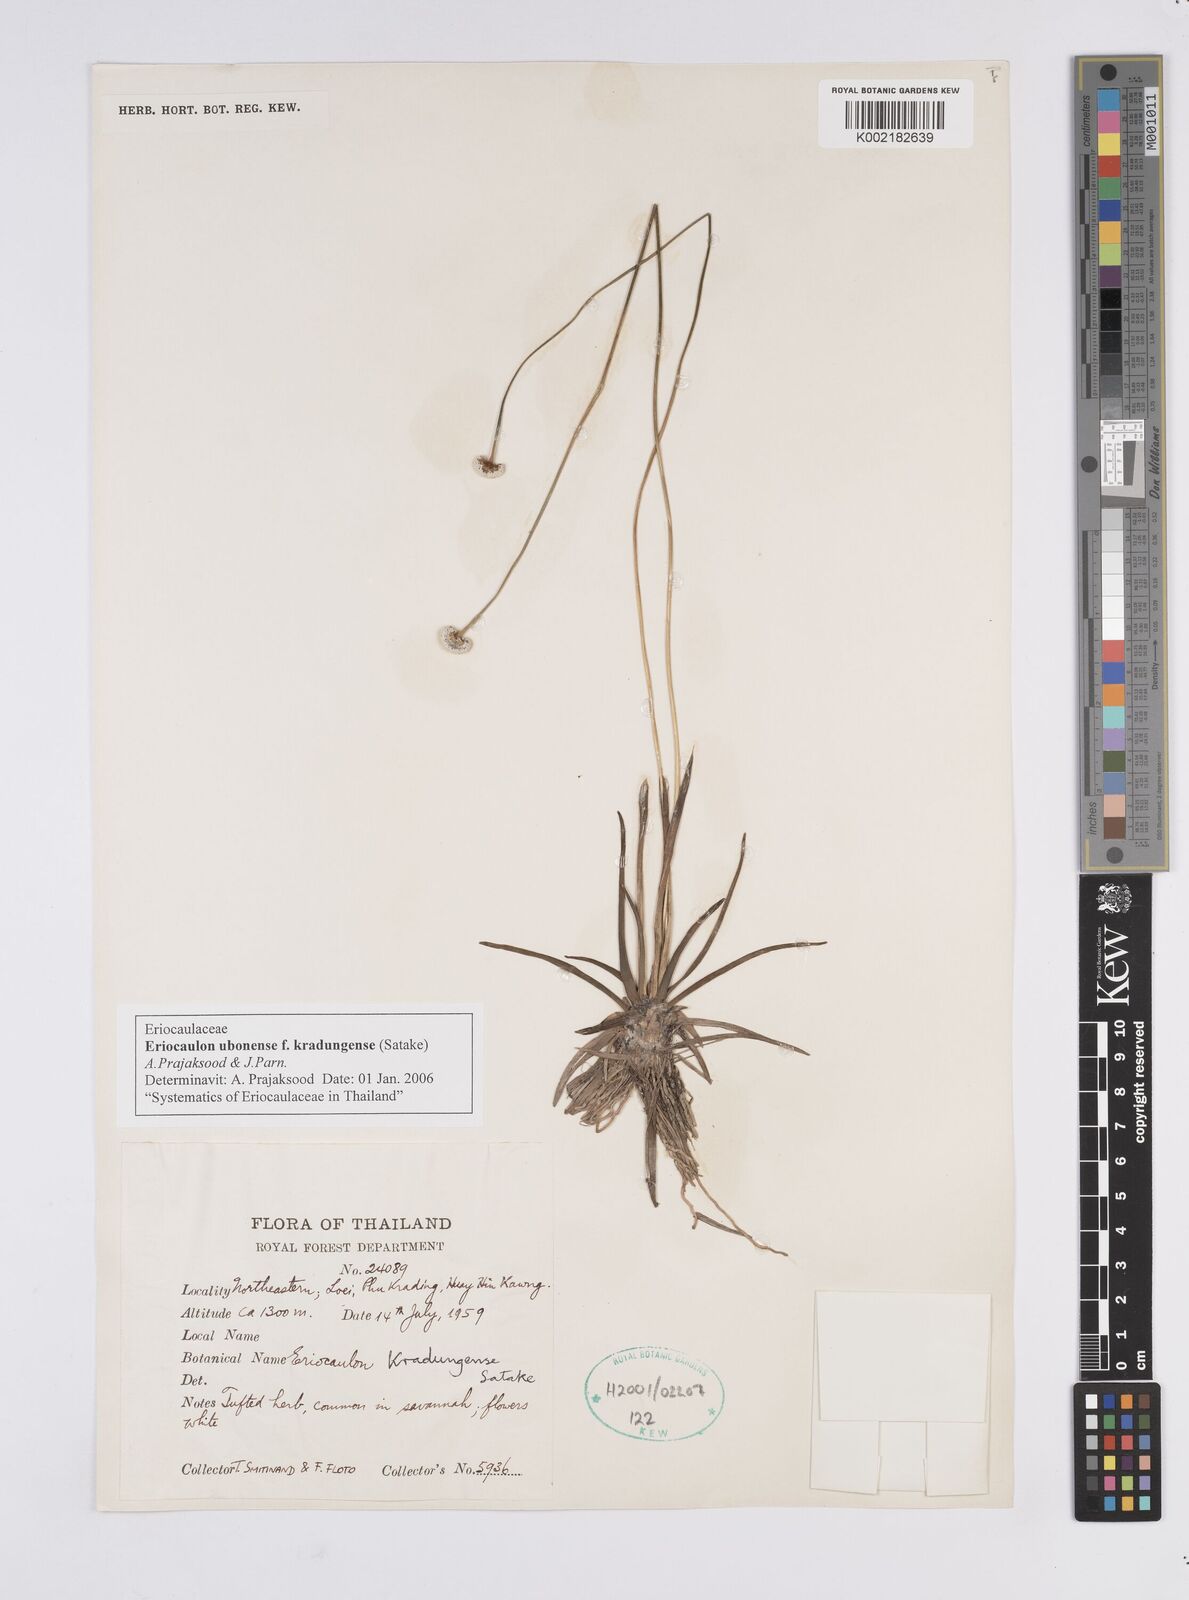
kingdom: Plantae
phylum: Tracheophyta
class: Liliopsida
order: Poales
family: Eriocaulaceae
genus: Eriocaulon
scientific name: Eriocaulon ubonense
